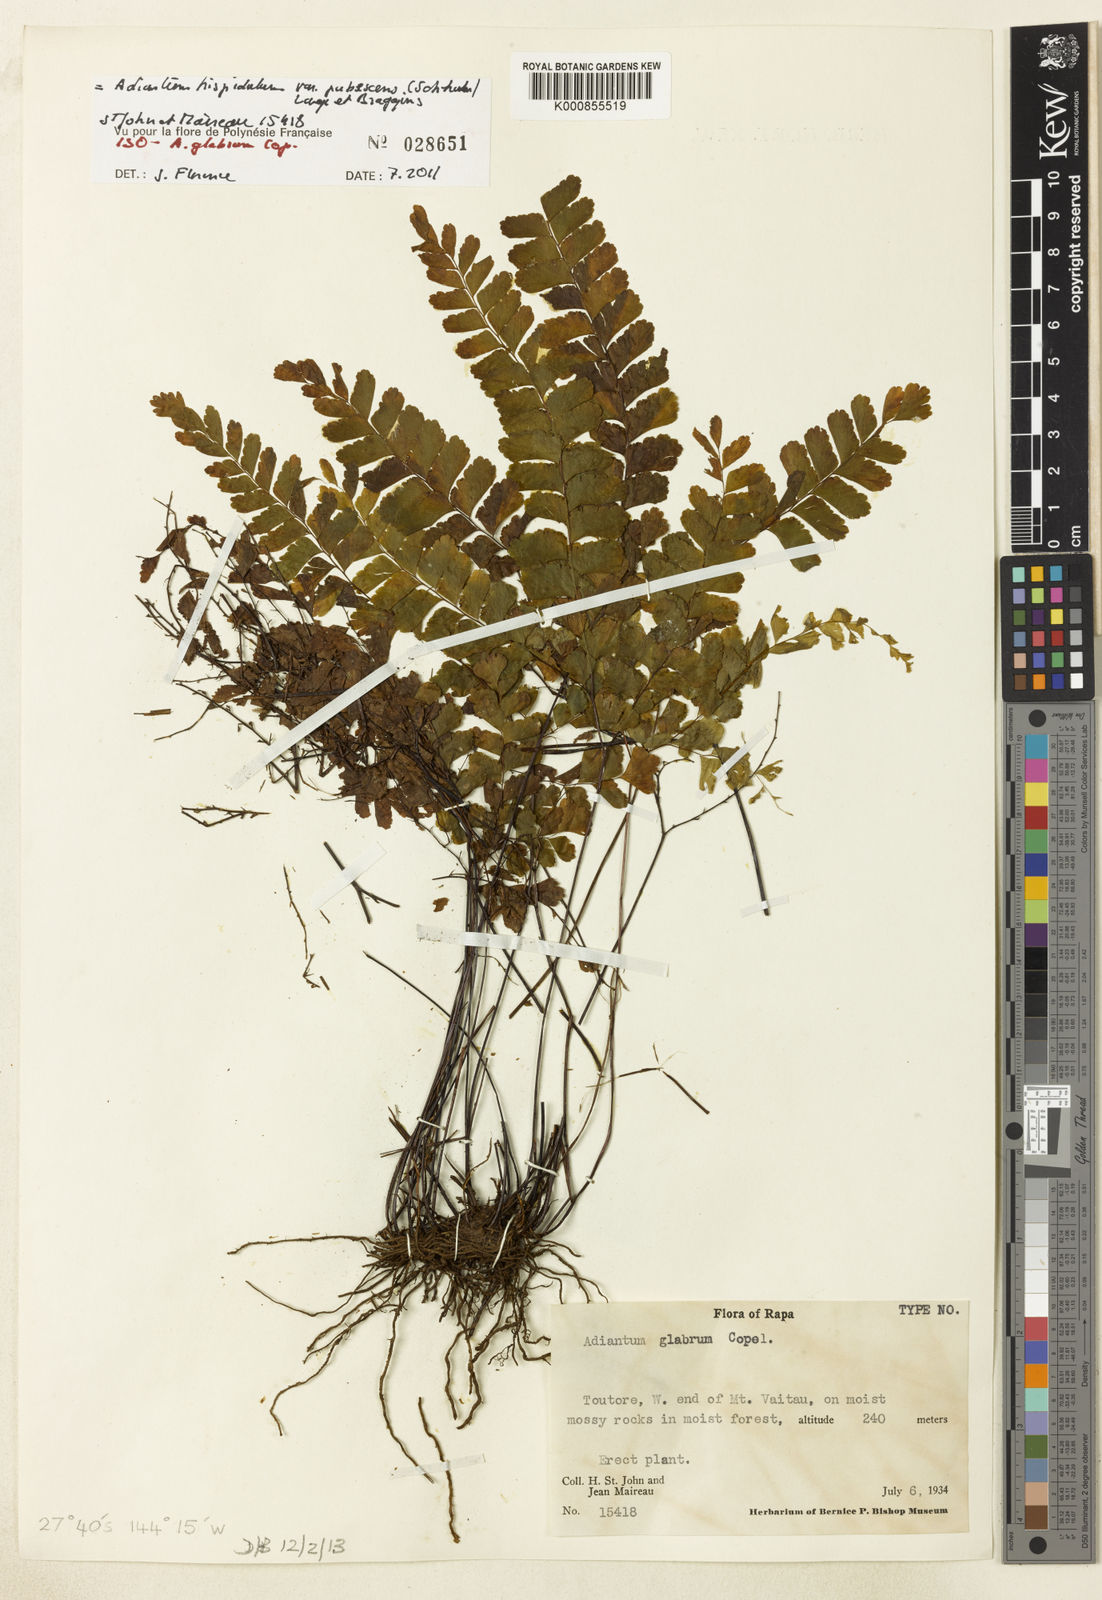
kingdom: Plantae
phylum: Tracheophyta
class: Polypodiopsida
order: Polypodiales
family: Pteridaceae
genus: Adiantum
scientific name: Adiantum
